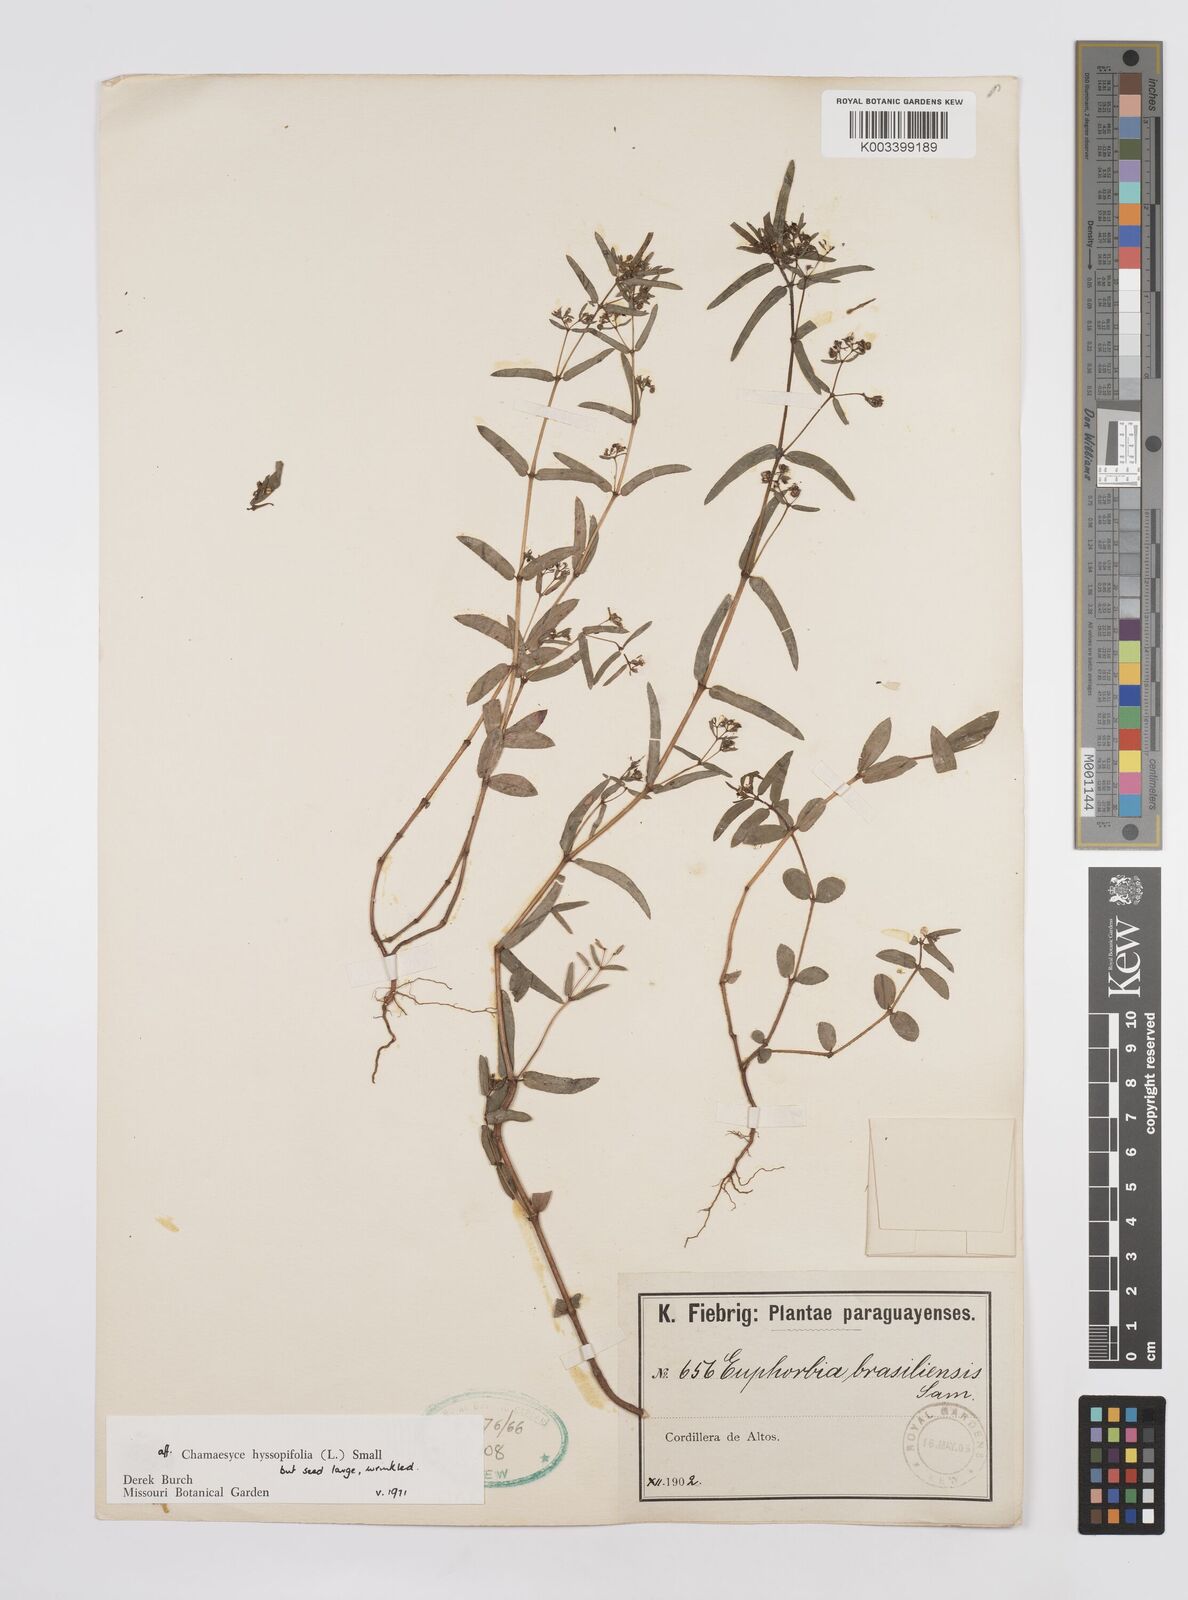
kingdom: Plantae
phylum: Tracheophyta
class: Magnoliopsida
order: Malpighiales
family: Euphorbiaceae
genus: Euphorbia
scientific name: Euphorbia hyssopifolia
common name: Hyssopleaf sandmat
